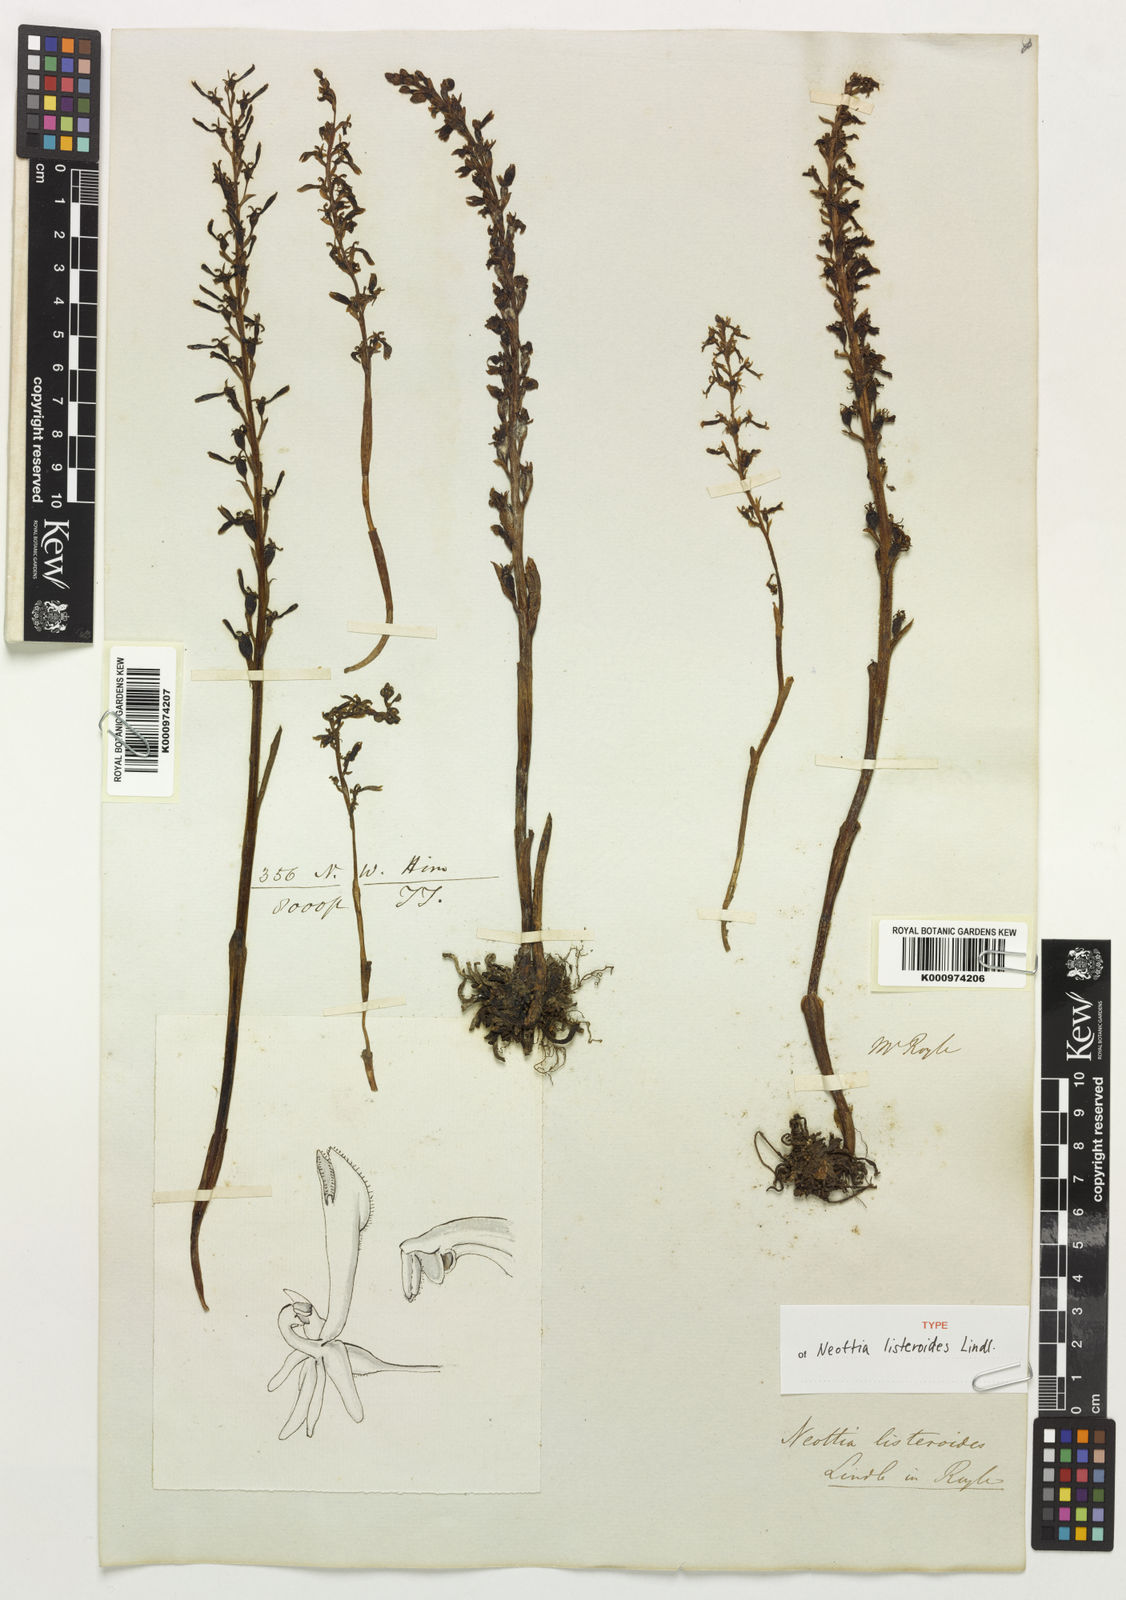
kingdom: Plantae
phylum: Tracheophyta
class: Liliopsida
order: Asparagales
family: Orchidaceae
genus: Neottia
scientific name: Neottia listeroides
